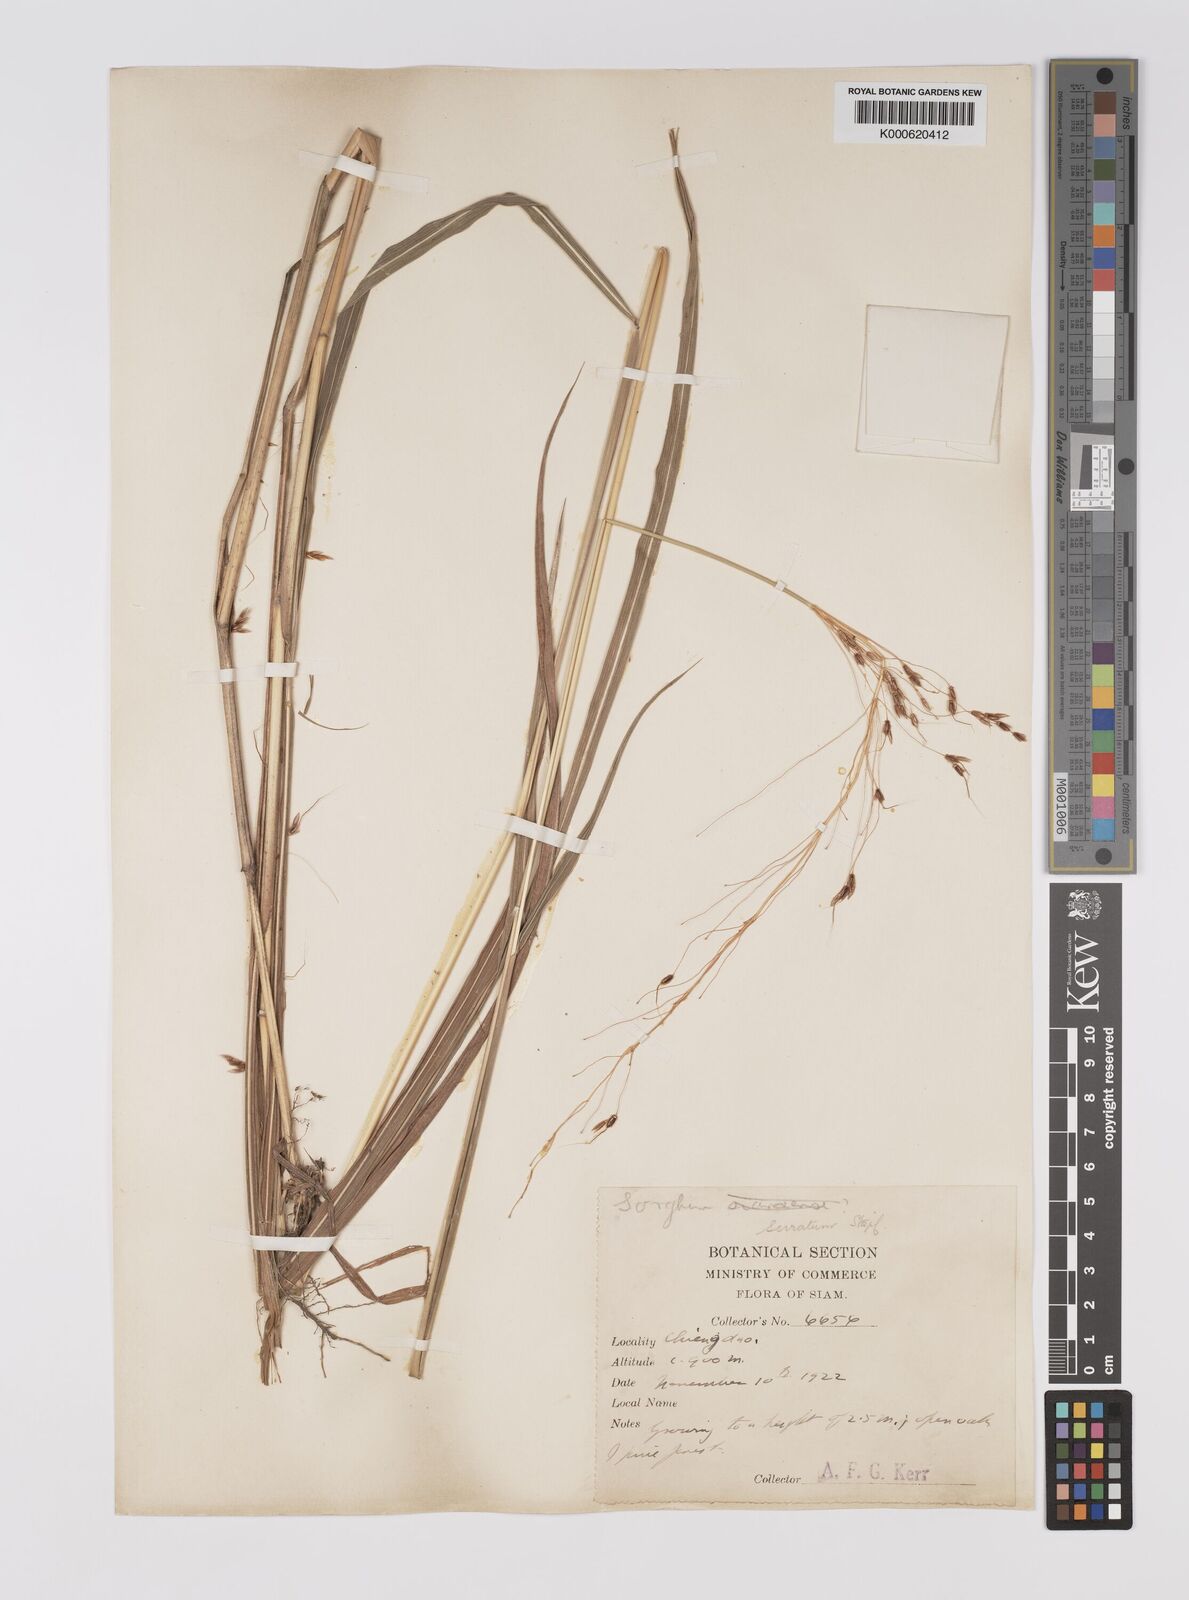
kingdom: Plantae
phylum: Tracheophyta
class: Liliopsida
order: Poales
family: Poaceae
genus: Sorghum
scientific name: Sorghum nitidum
